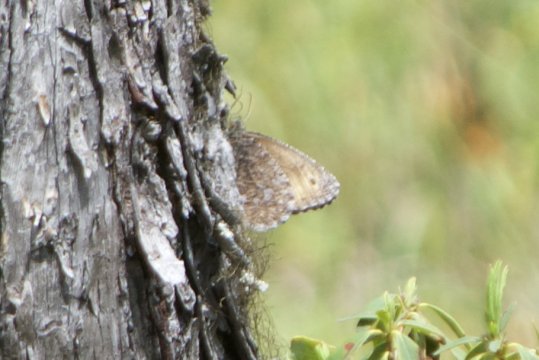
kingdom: Animalia
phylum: Arthropoda
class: Insecta
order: Lepidoptera
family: Nymphalidae
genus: Oeneis
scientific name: Oeneis jutta
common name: Jutta Arctic
